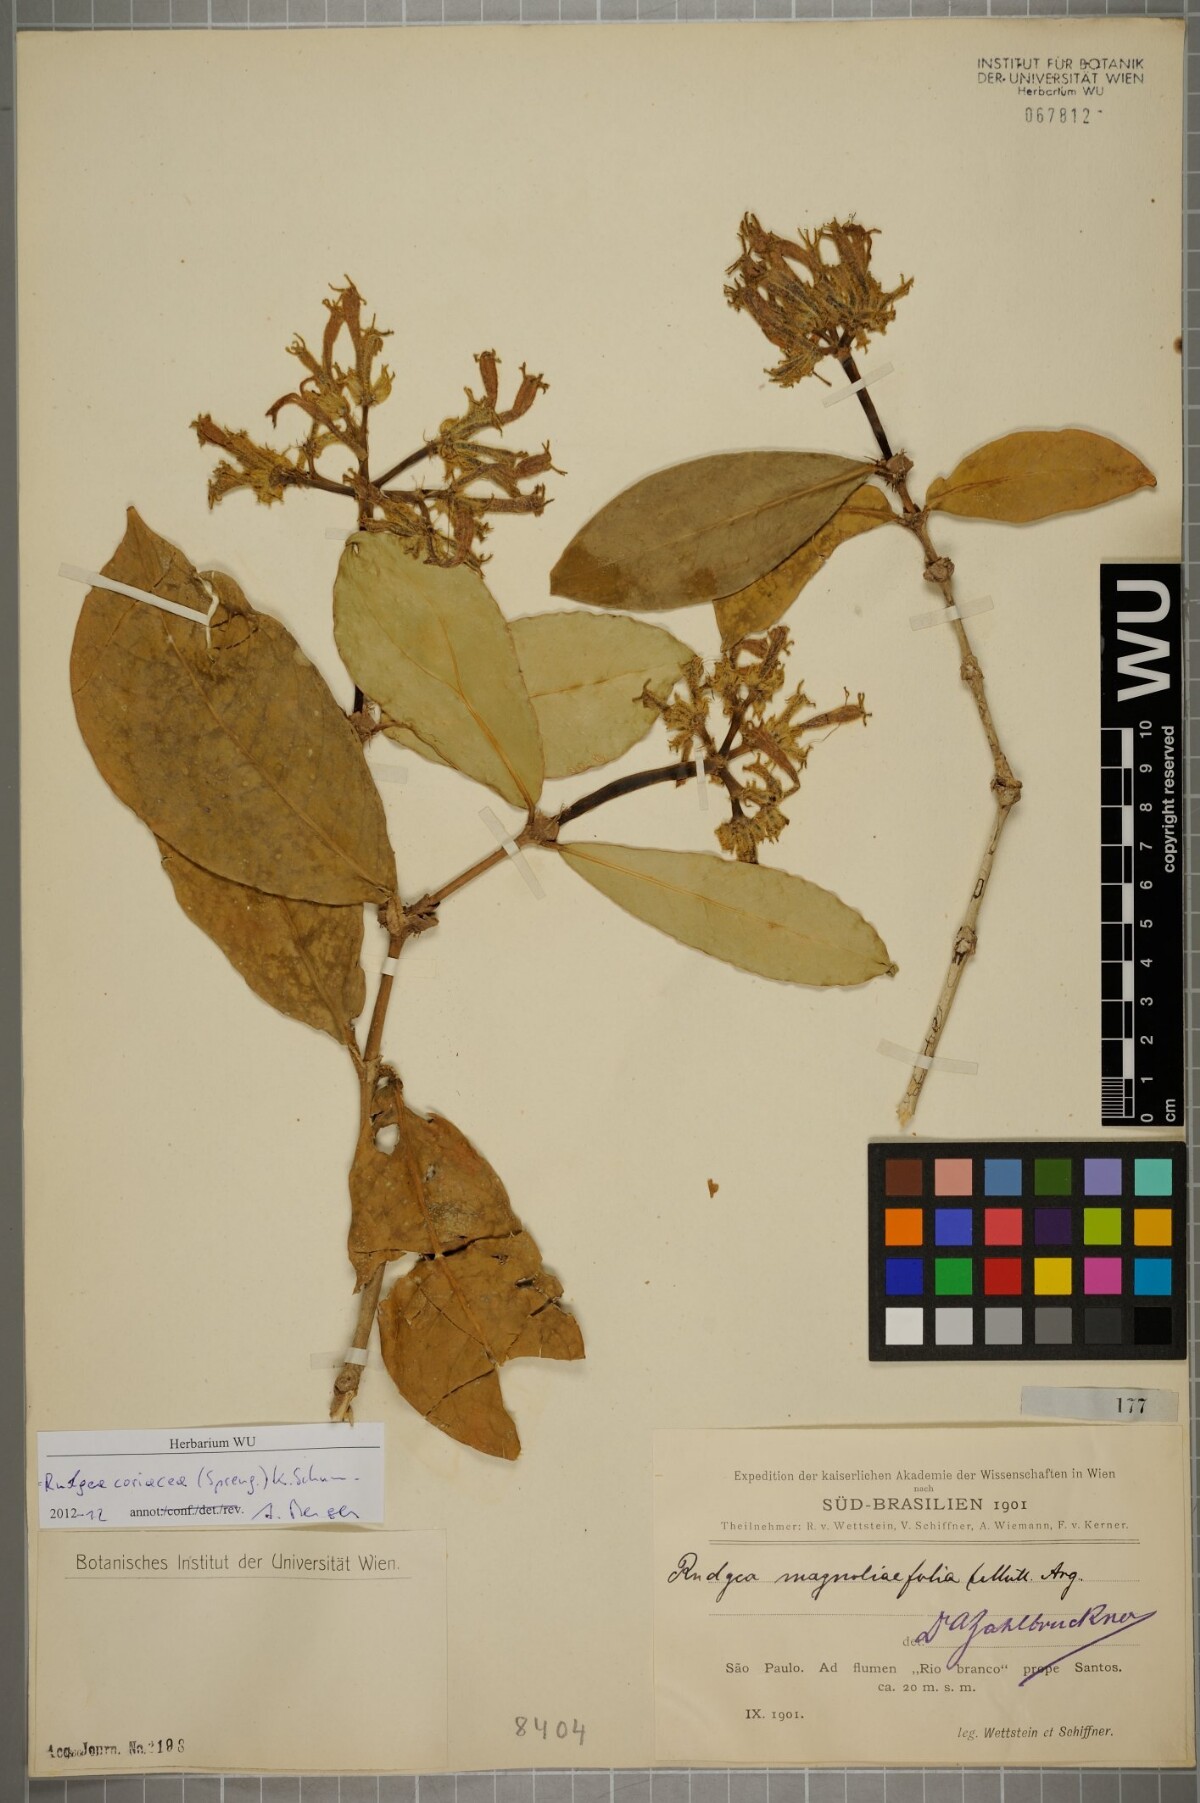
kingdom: Plantae
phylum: Tracheophyta
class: Magnoliopsida
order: Gentianales
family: Rubiaceae
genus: Rudgea
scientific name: Rudgea coriacea
